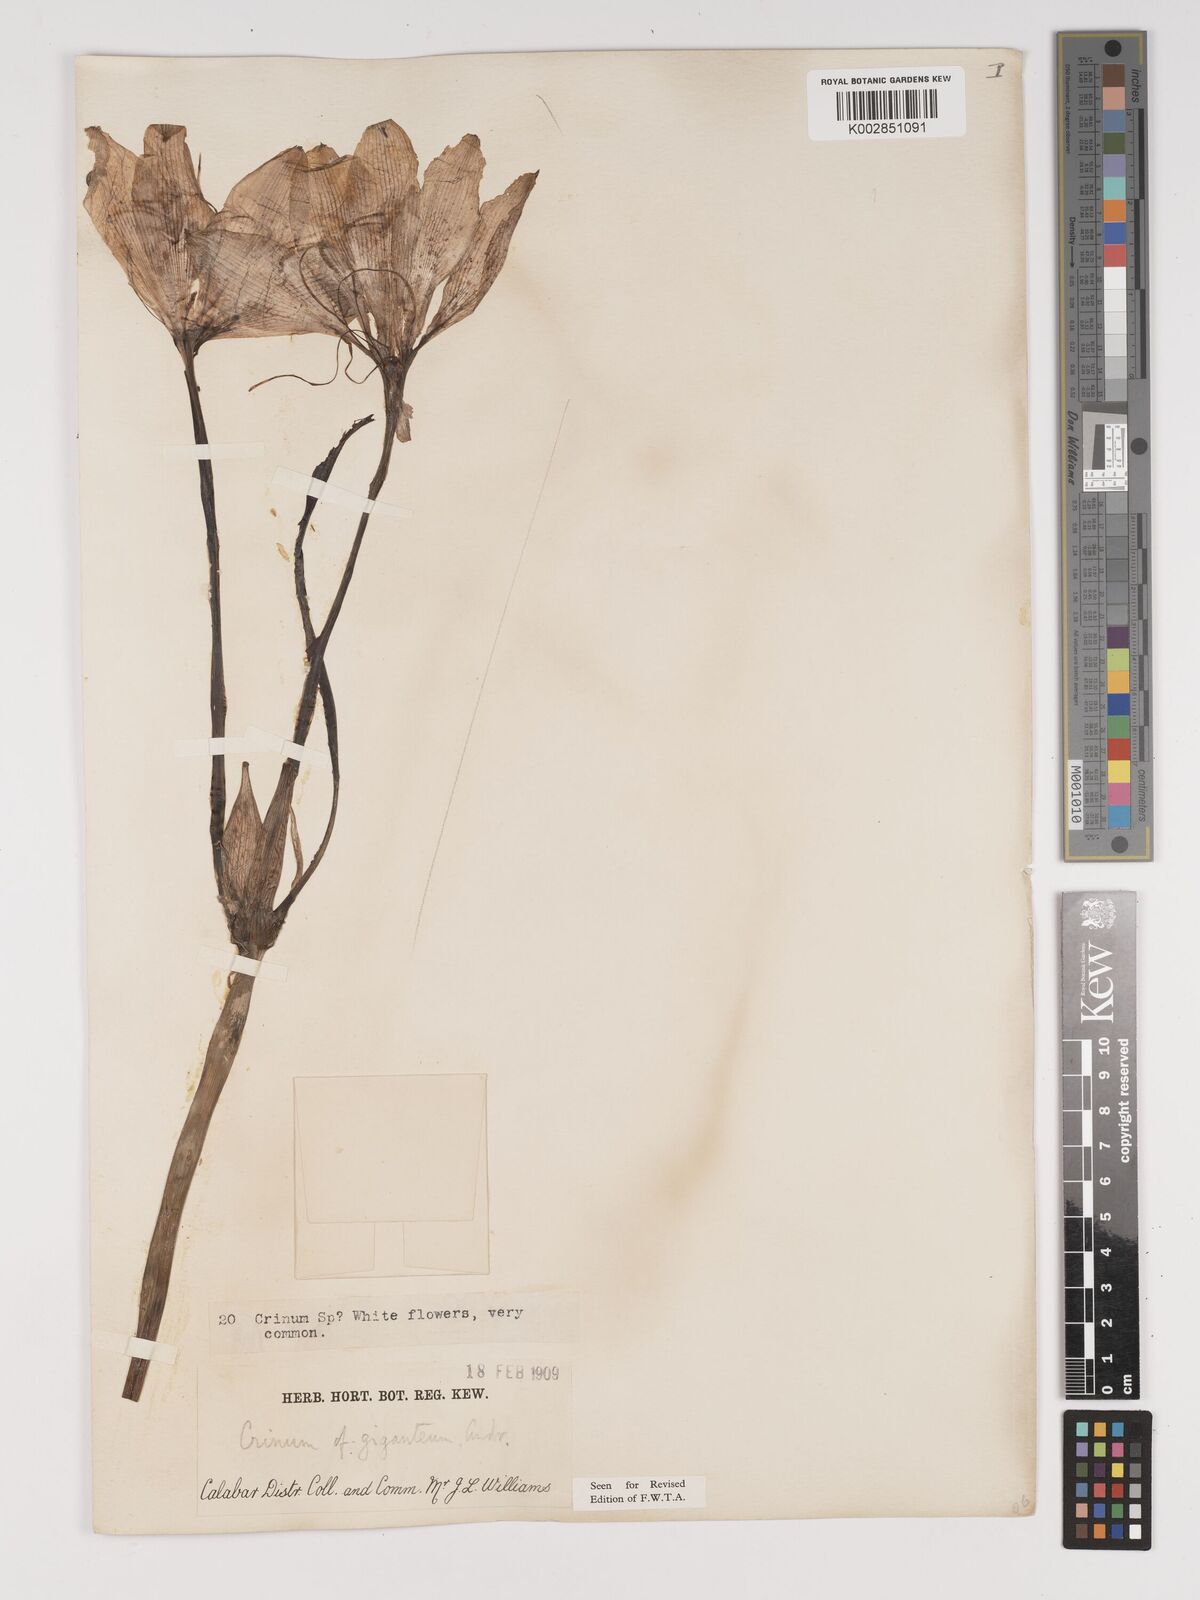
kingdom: Plantae
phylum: Tracheophyta
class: Liliopsida
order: Asparagales
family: Amaryllidaceae
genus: Crinum
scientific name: Crinum jagus
